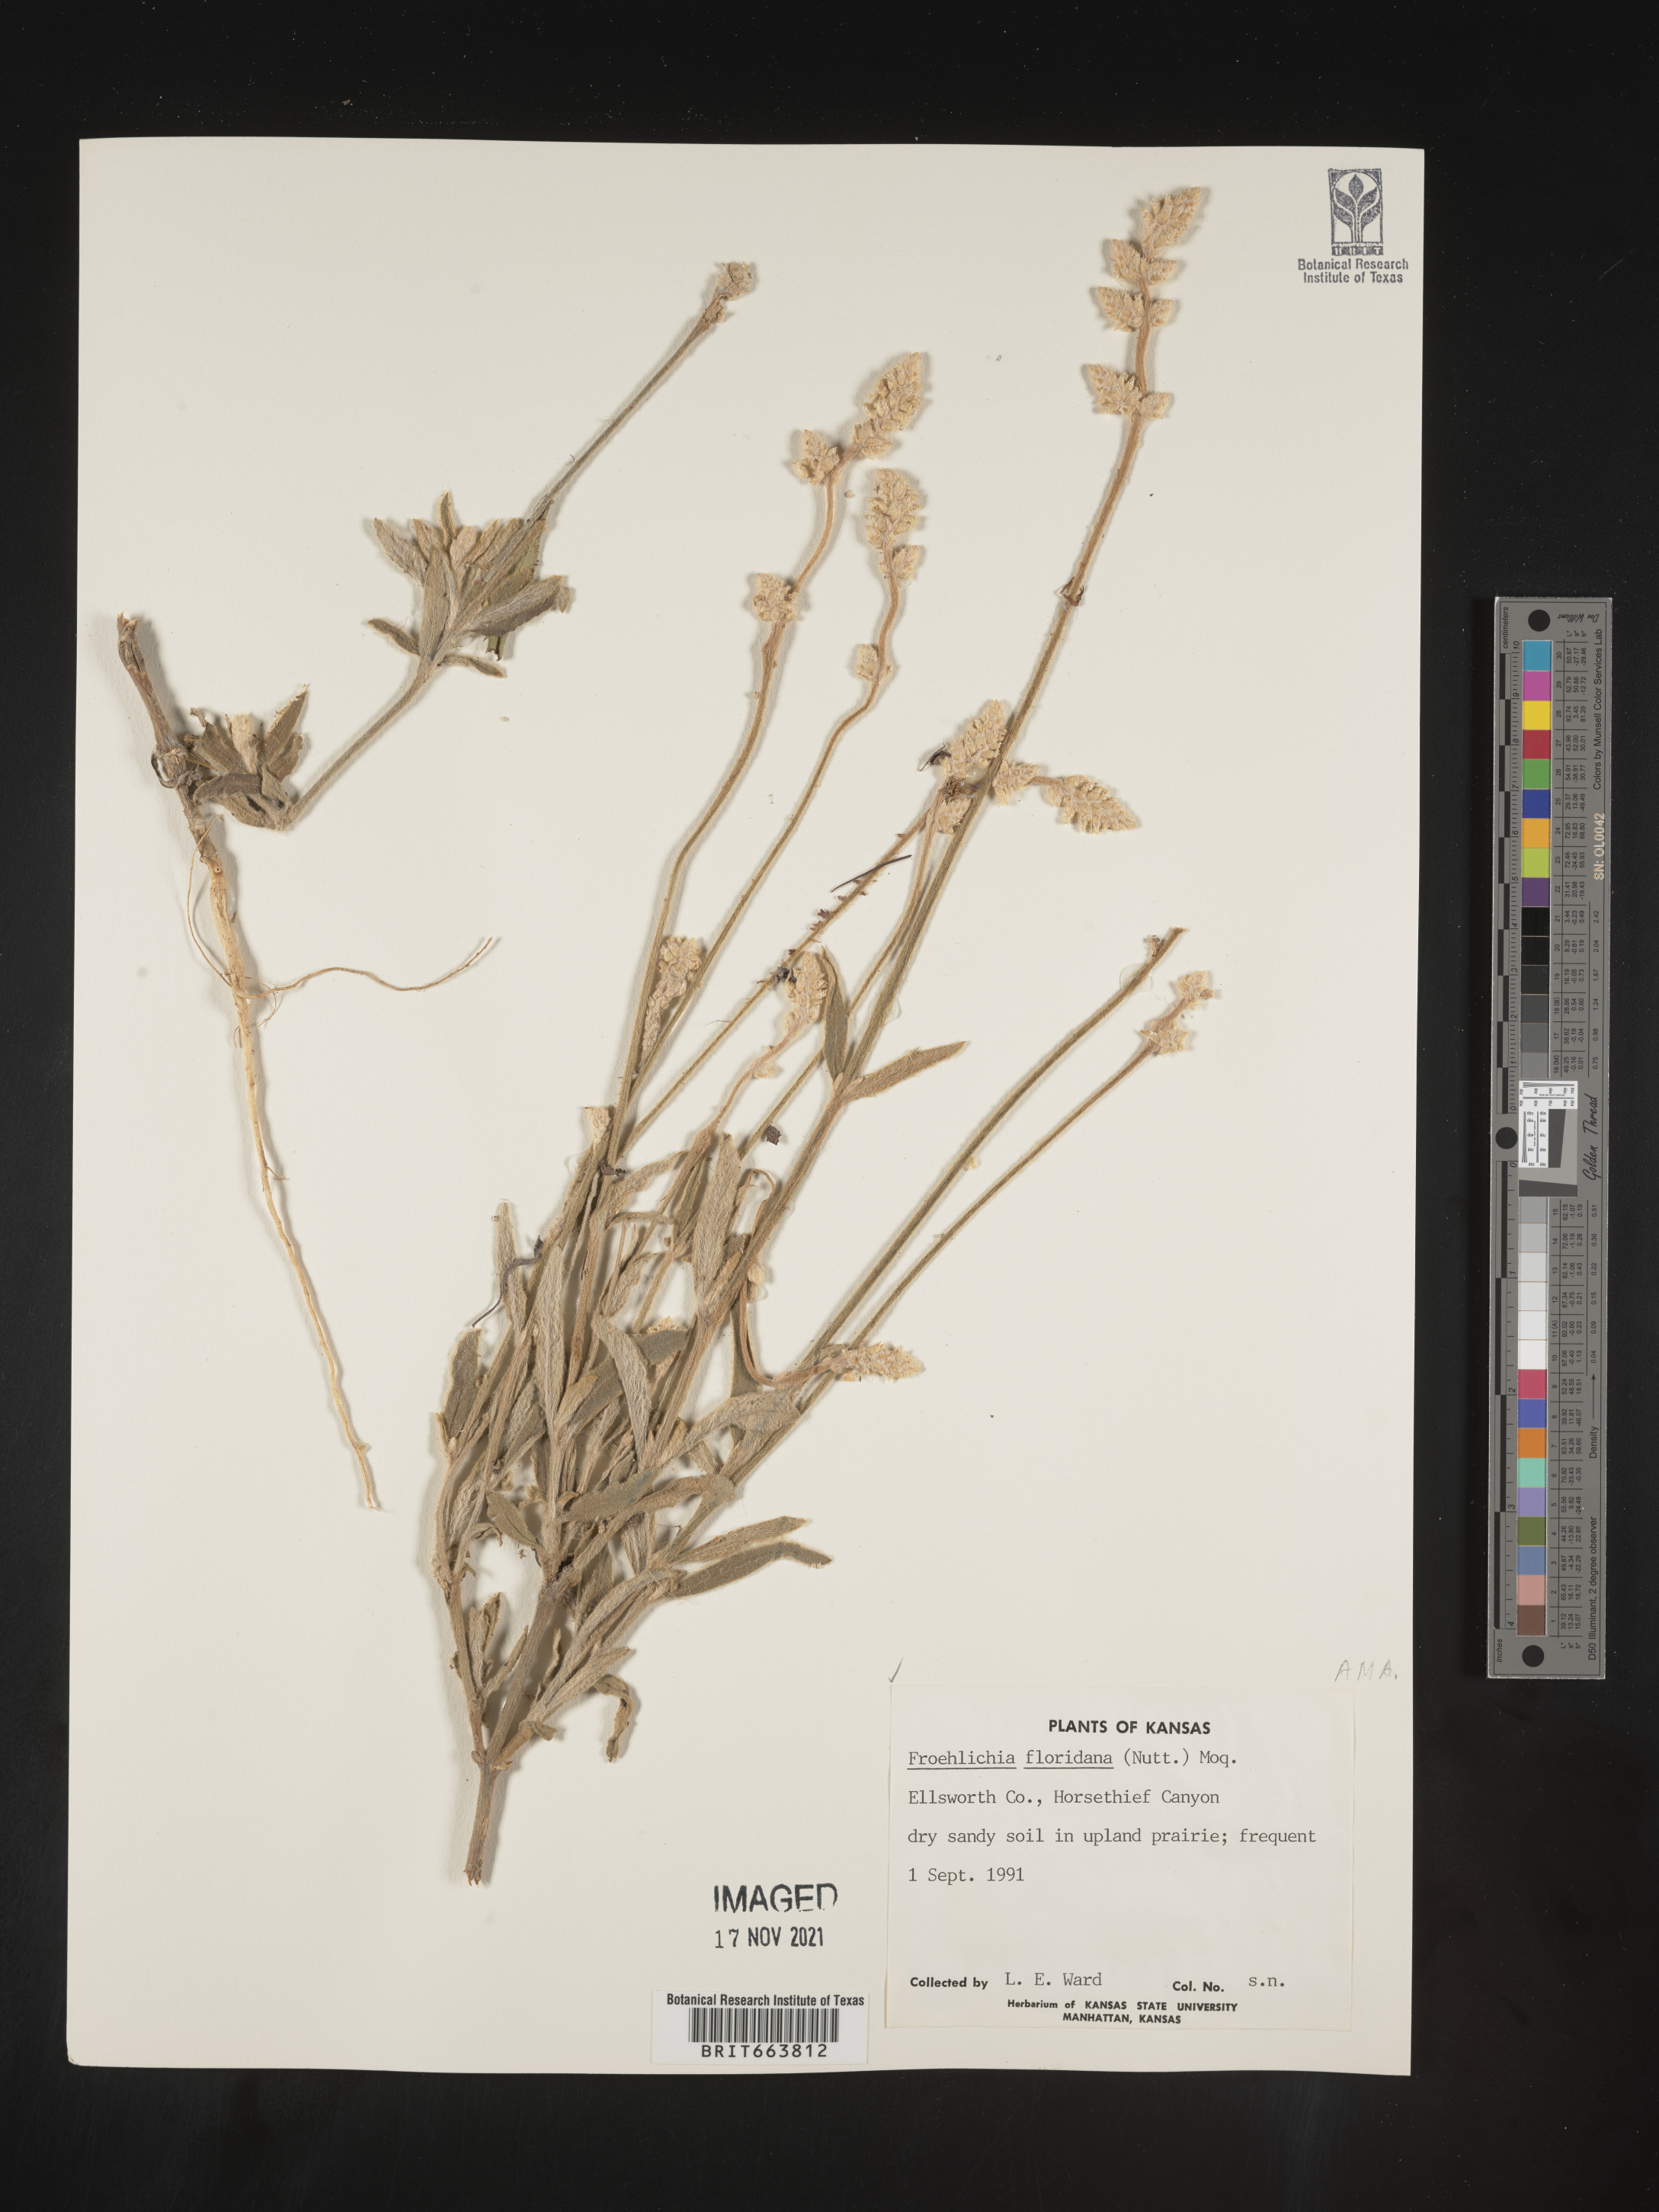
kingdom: Plantae
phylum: Tracheophyta
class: Magnoliopsida
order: Caryophyllales
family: Amaranthaceae
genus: Froelichia
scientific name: Froelichia floridana
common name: Florida snake-cotton
